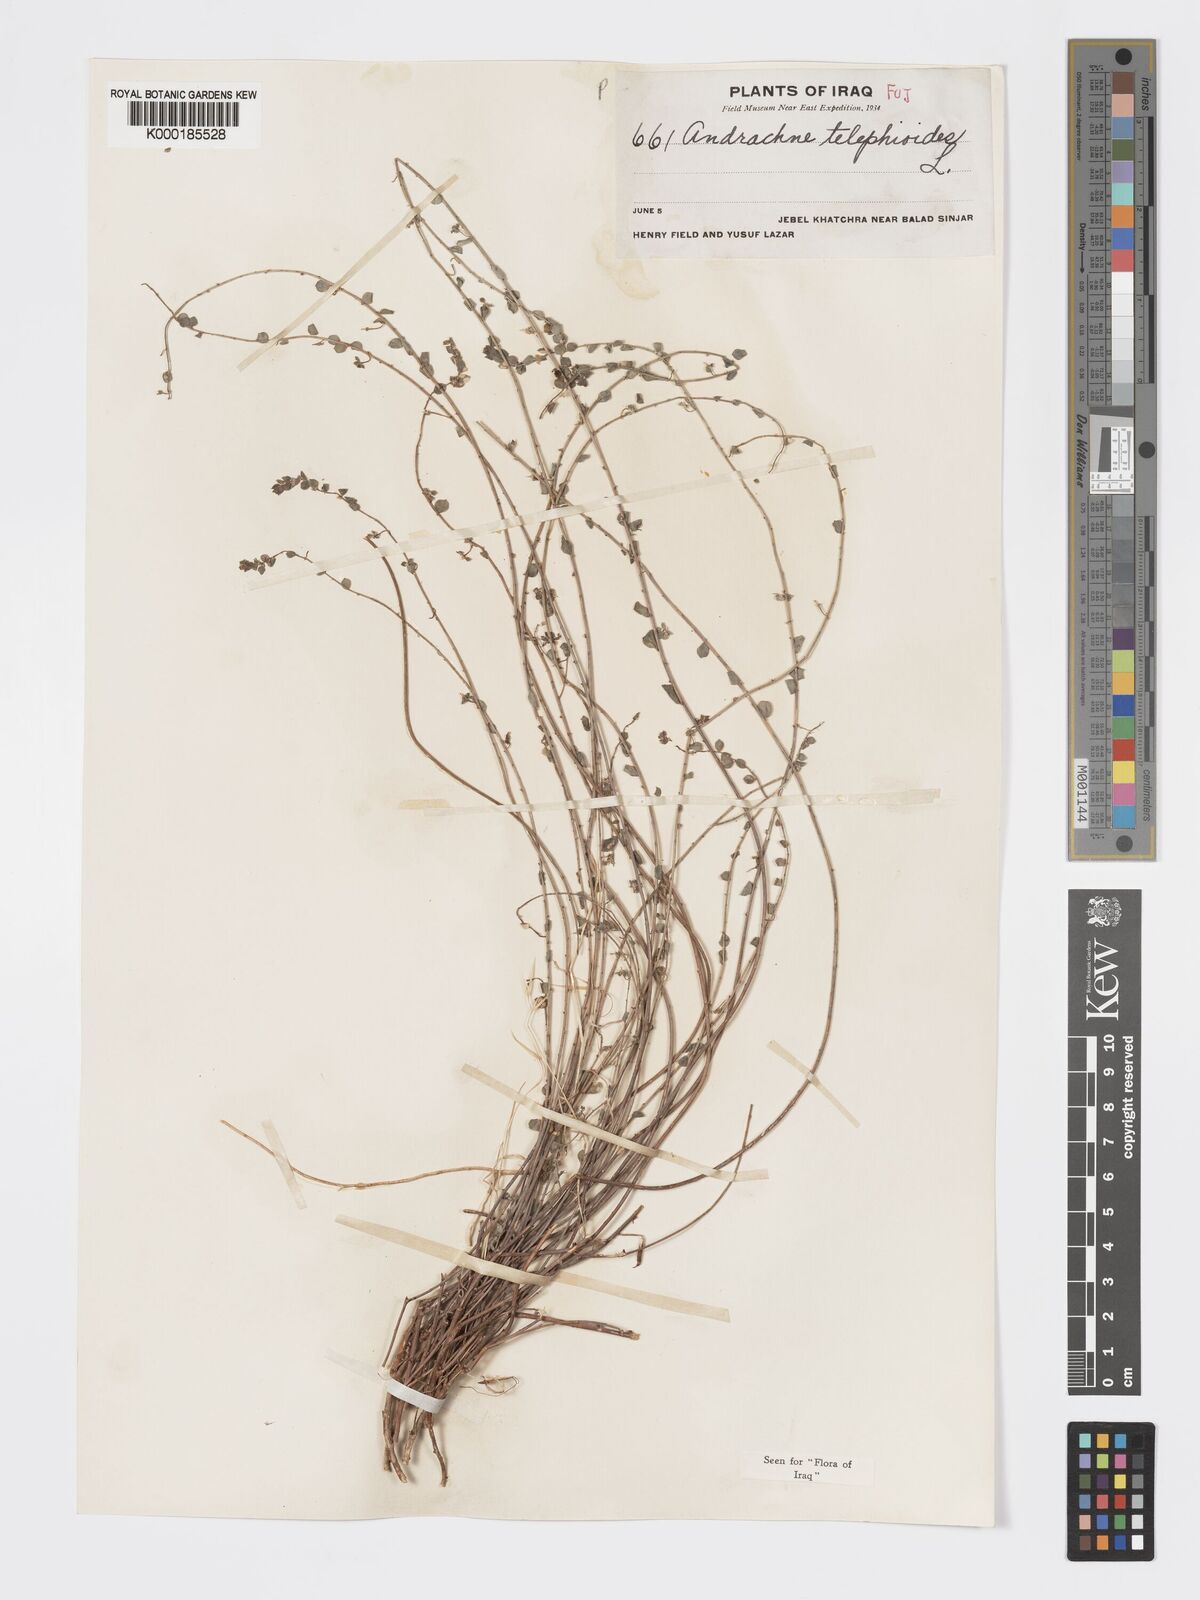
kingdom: Plantae
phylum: Tracheophyta
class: Magnoliopsida
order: Malpighiales
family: Phyllanthaceae
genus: Andrachne
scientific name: Andrachne telephioides
